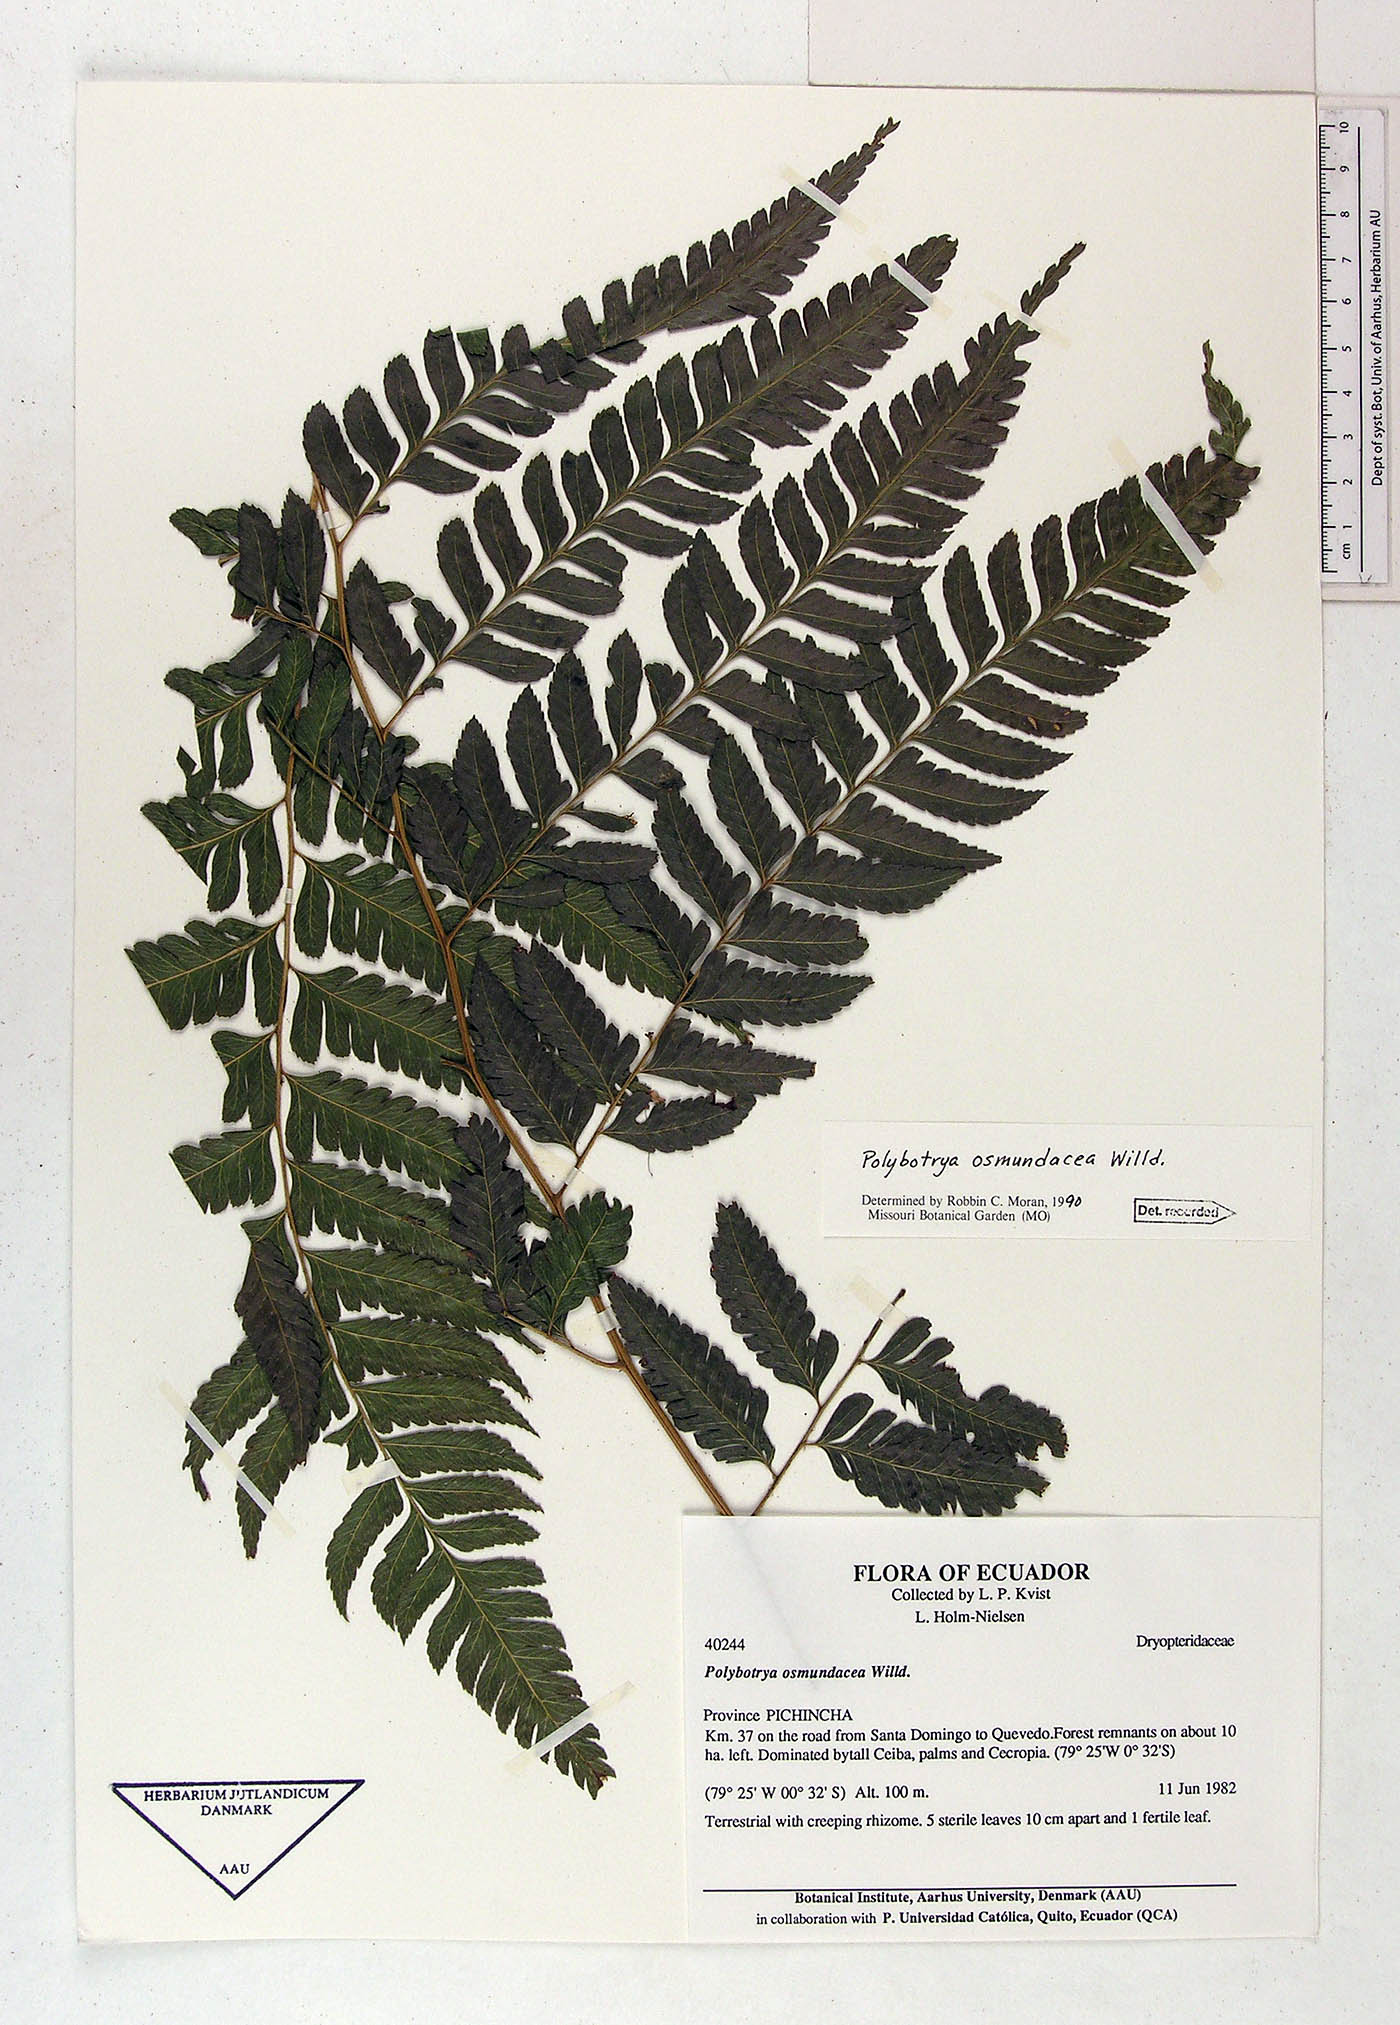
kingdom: Plantae
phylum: Tracheophyta
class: Polypodiopsida
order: Polypodiales
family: Dryopteridaceae
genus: Polybotrya
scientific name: Polybotrya osmundacea
